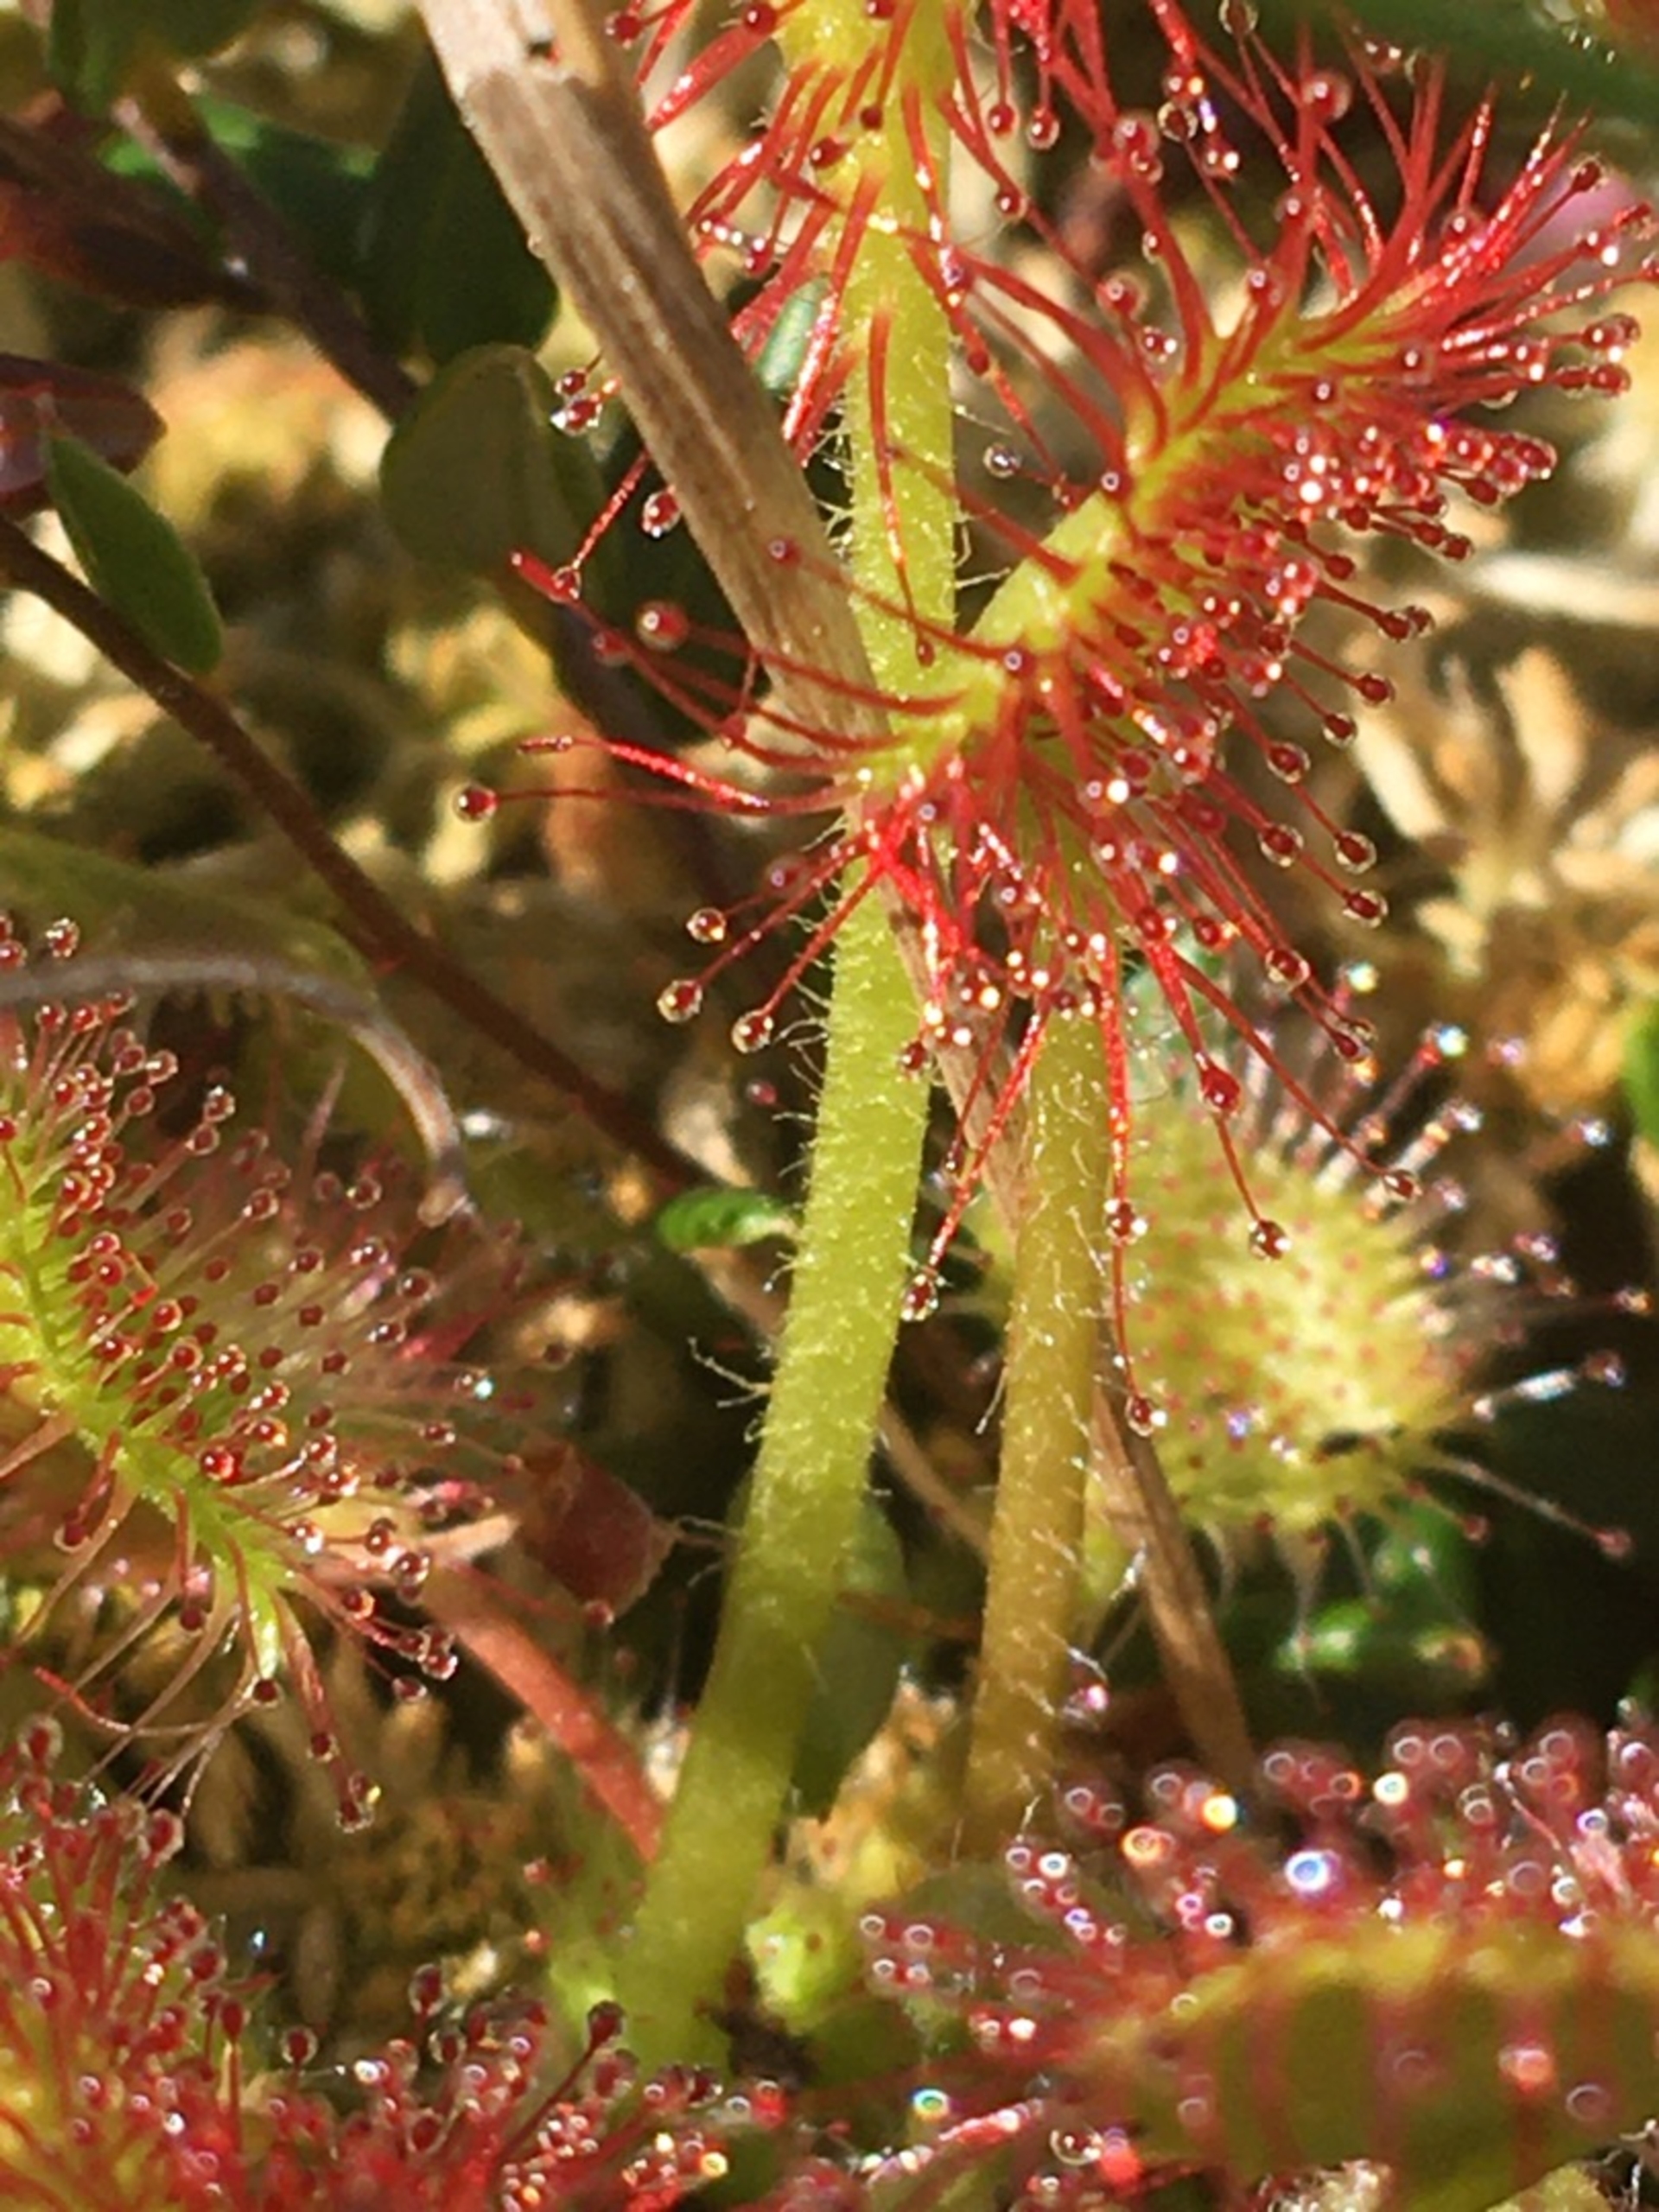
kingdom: Plantae
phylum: Tracheophyta
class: Magnoliopsida
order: Caryophyllales
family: Droseraceae
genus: Drosera
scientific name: Drosera rotundifolia
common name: Rundbladet soldug
